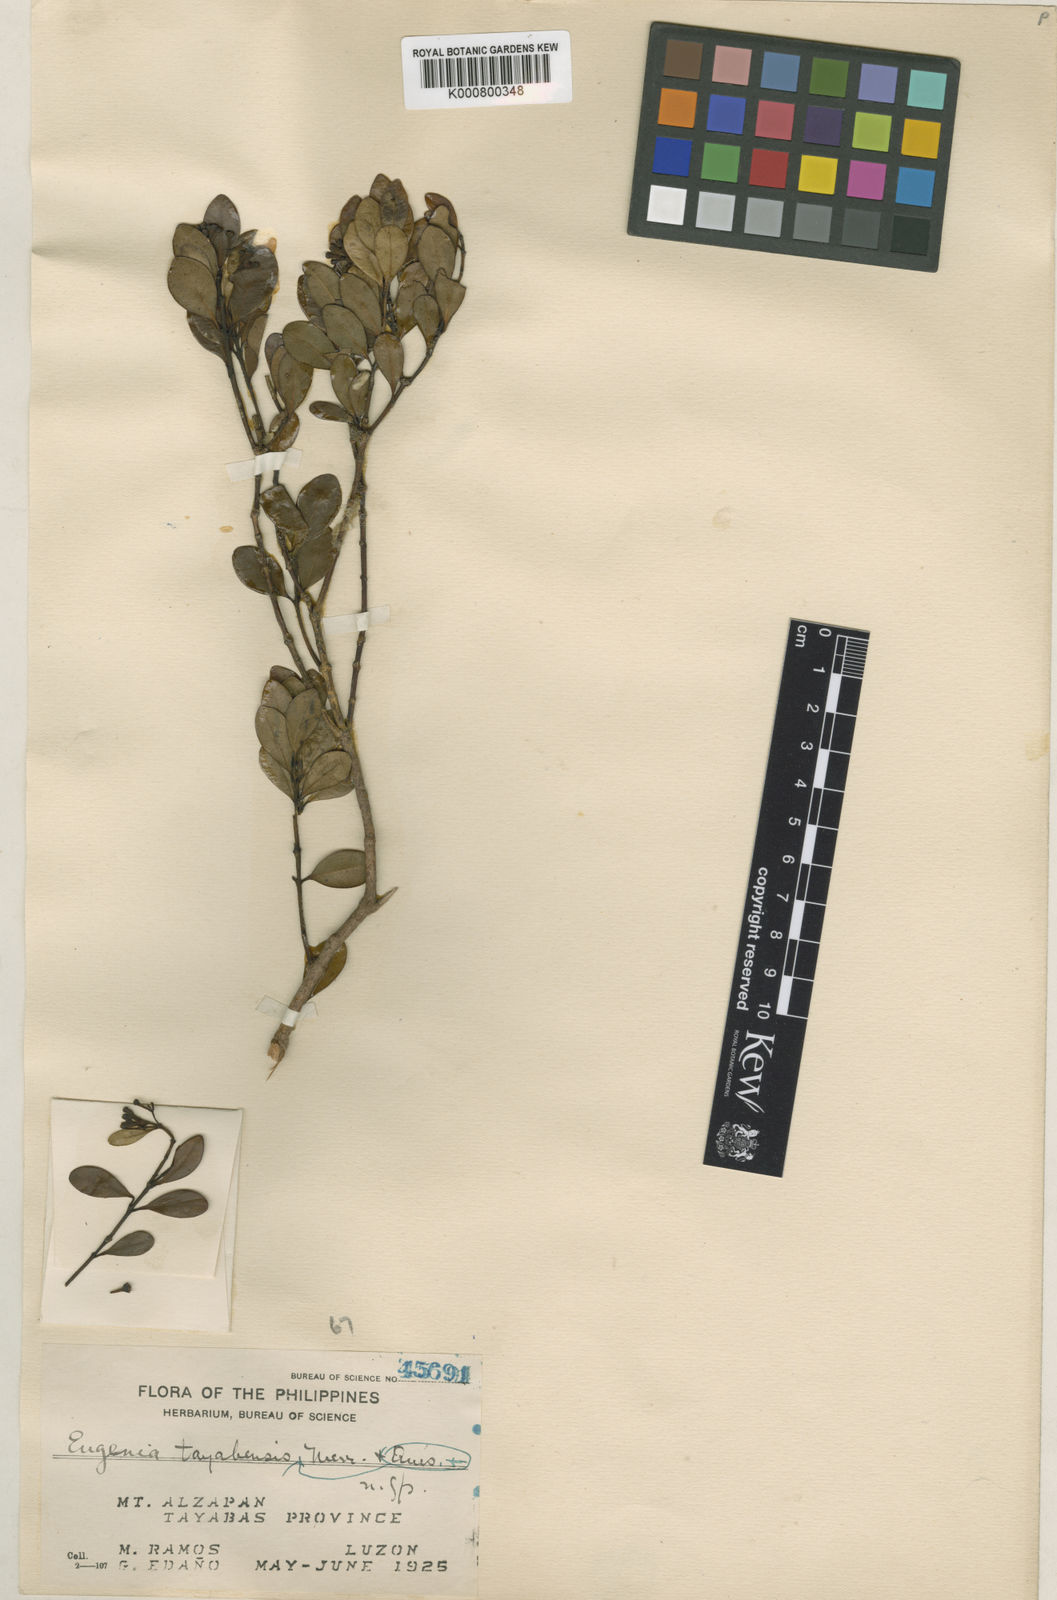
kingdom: Plantae
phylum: Tracheophyta
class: Magnoliopsida
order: Myrtales
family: Myrtaceae
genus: Syzygium
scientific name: Syzygium taytayense
